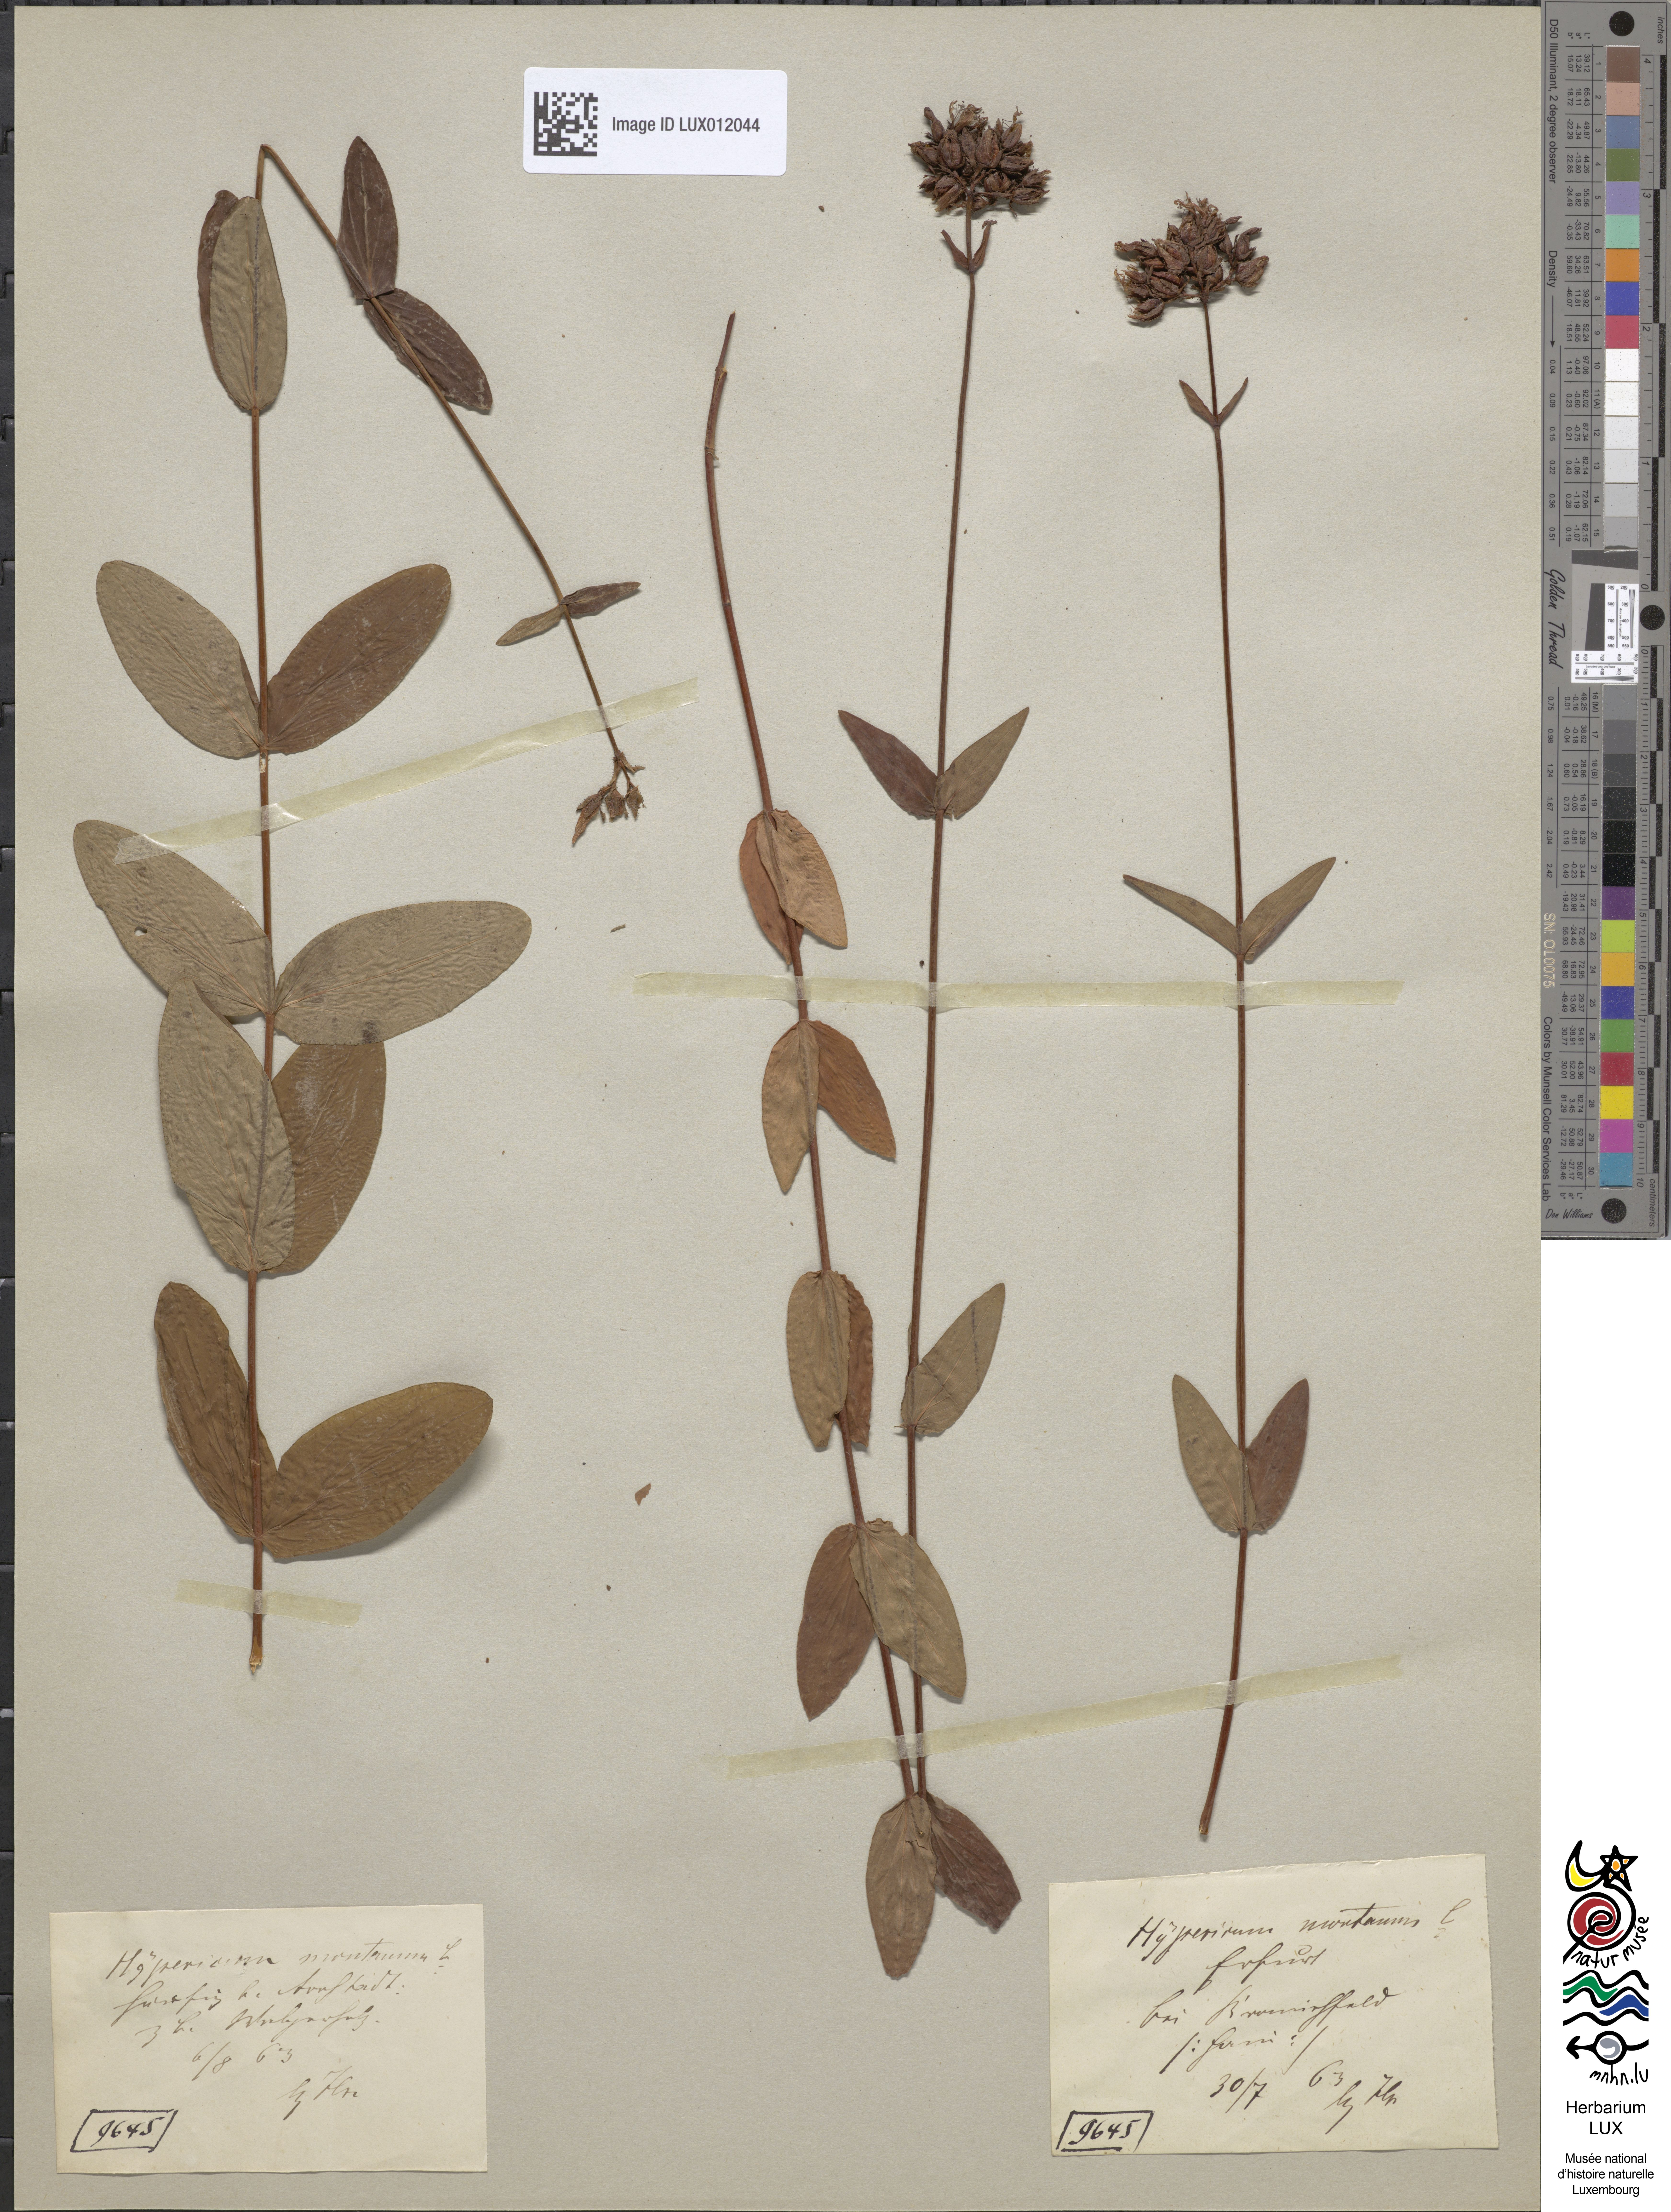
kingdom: Plantae
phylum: Tracheophyta
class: Magnoliopsida
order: Malpighiales
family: Hypericaceae
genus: Hypericum
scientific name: Hypericum montanum
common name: Pale st. john's-wort
